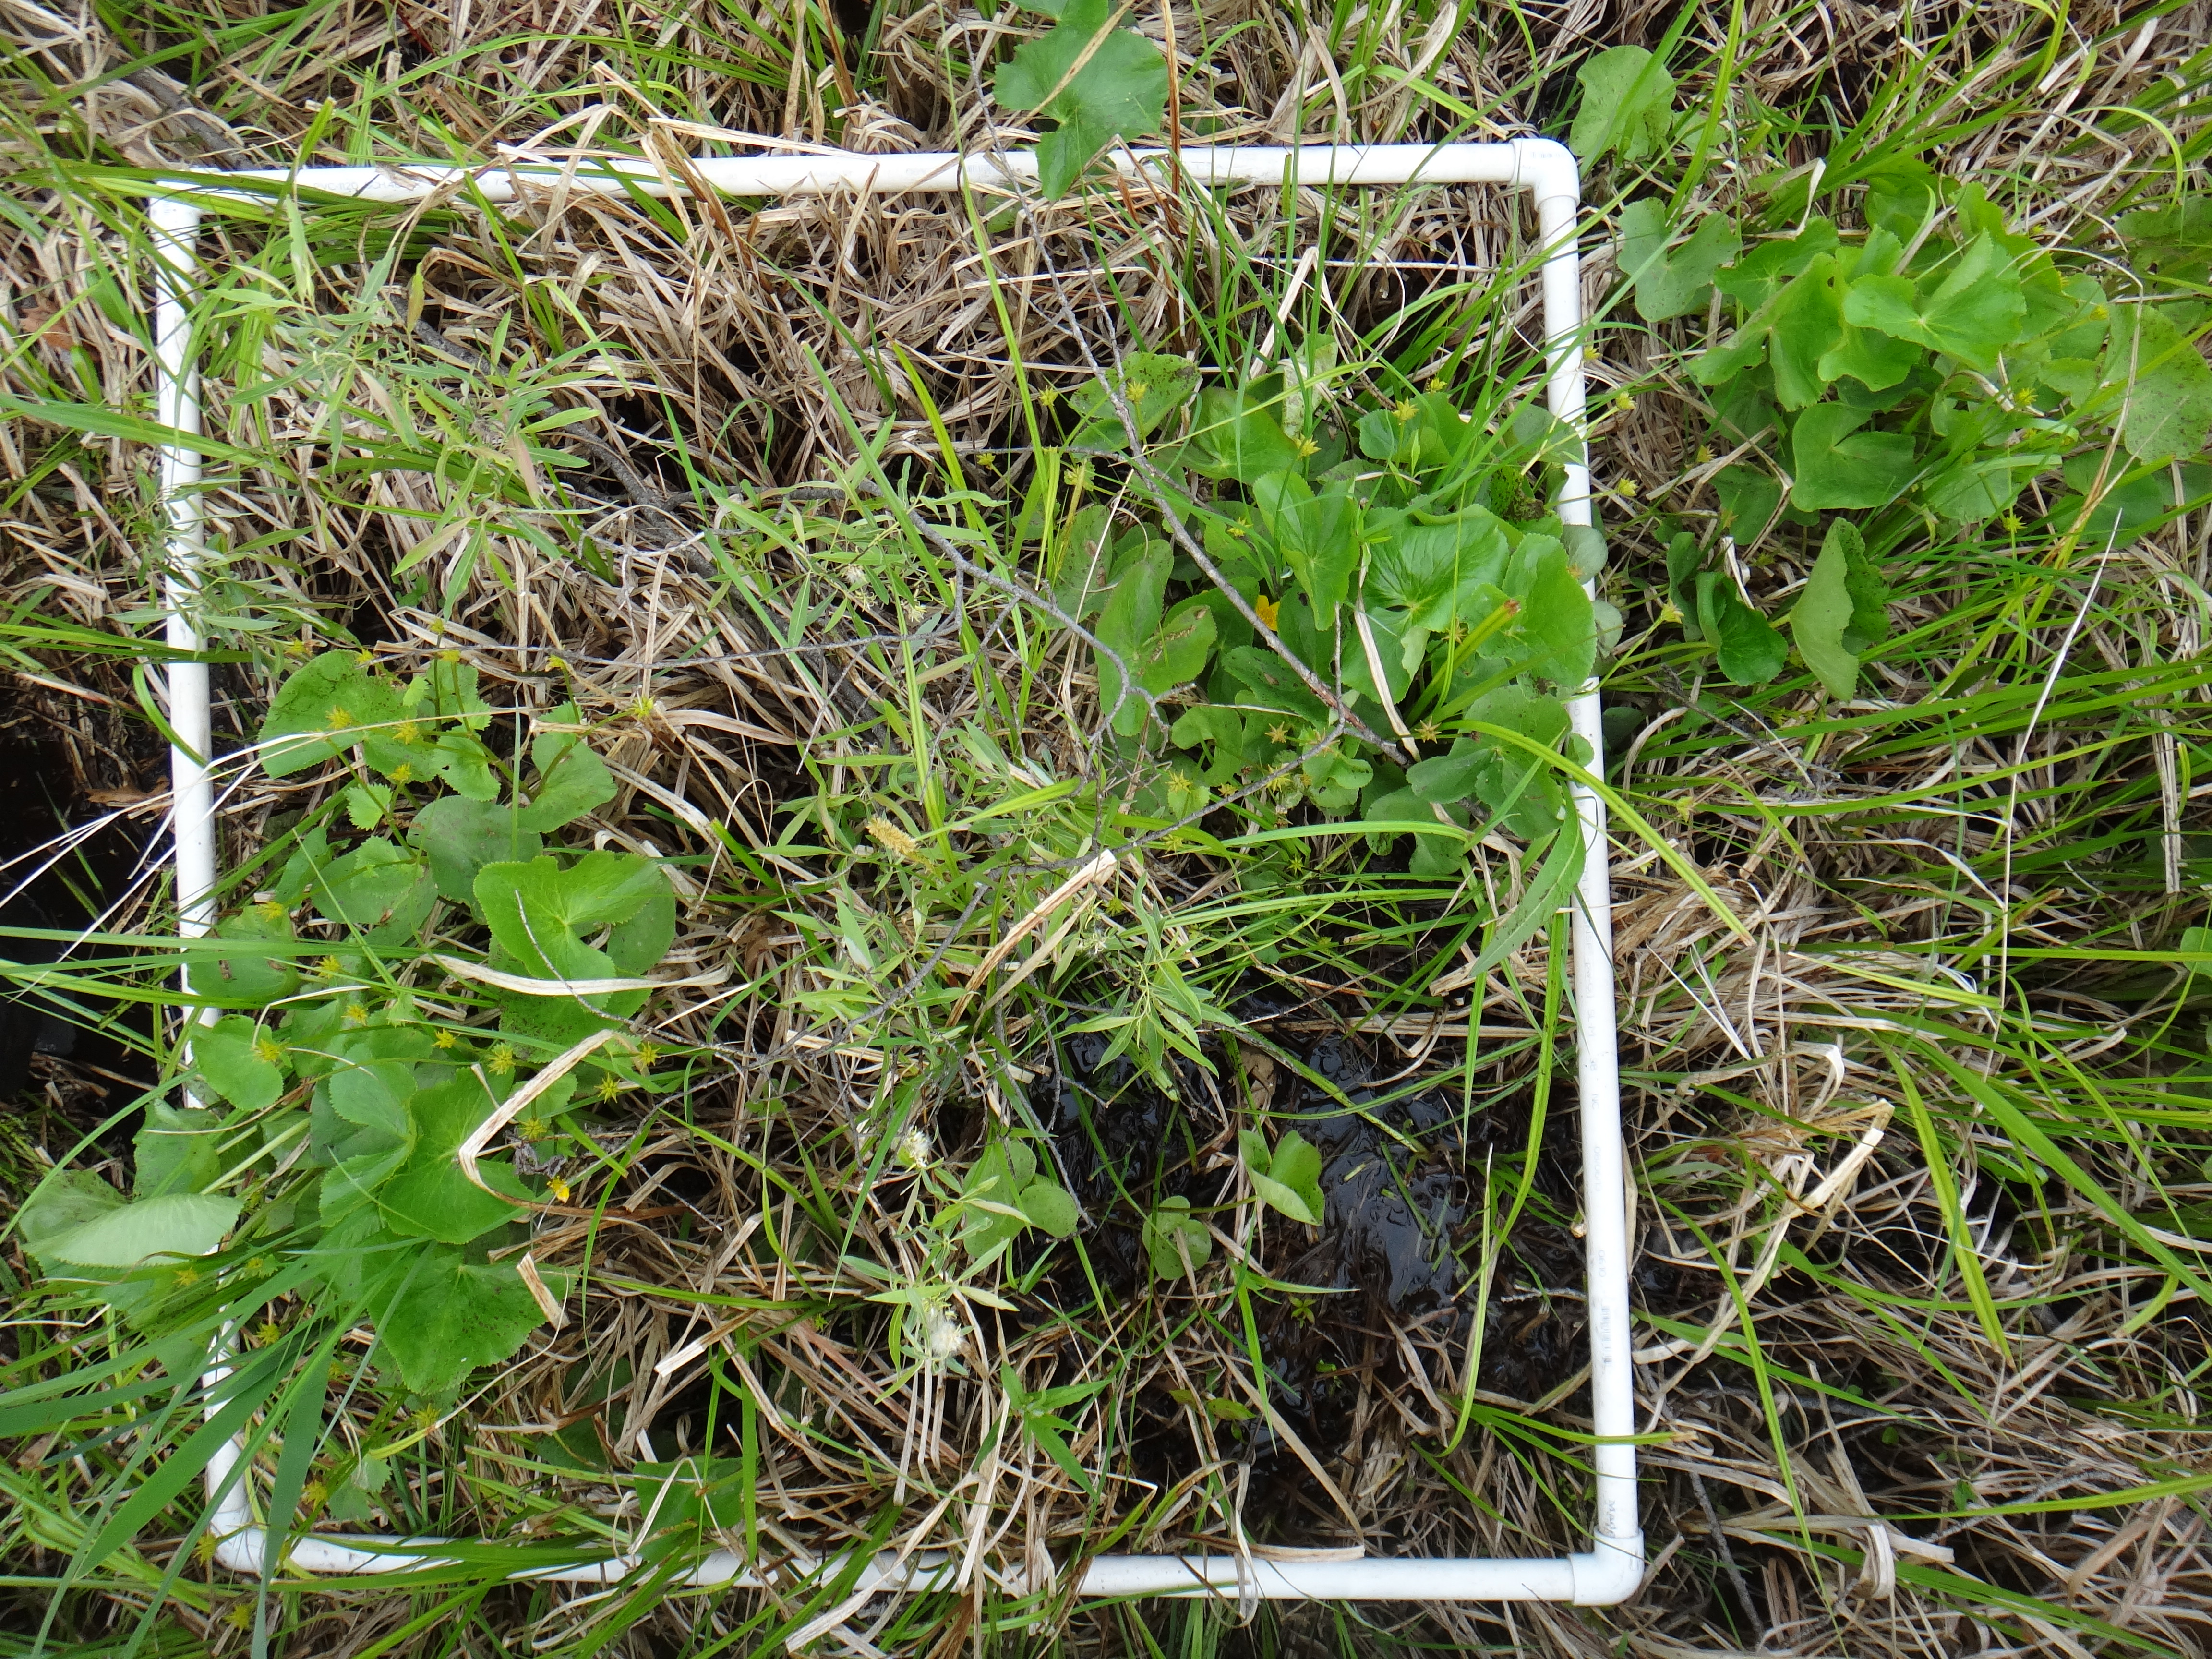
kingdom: Plantae
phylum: Tracheophyta
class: Magnoliopsida
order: Apiales
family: Apiaceae
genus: Daucus
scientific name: Daucus carota
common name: Wild carrot
